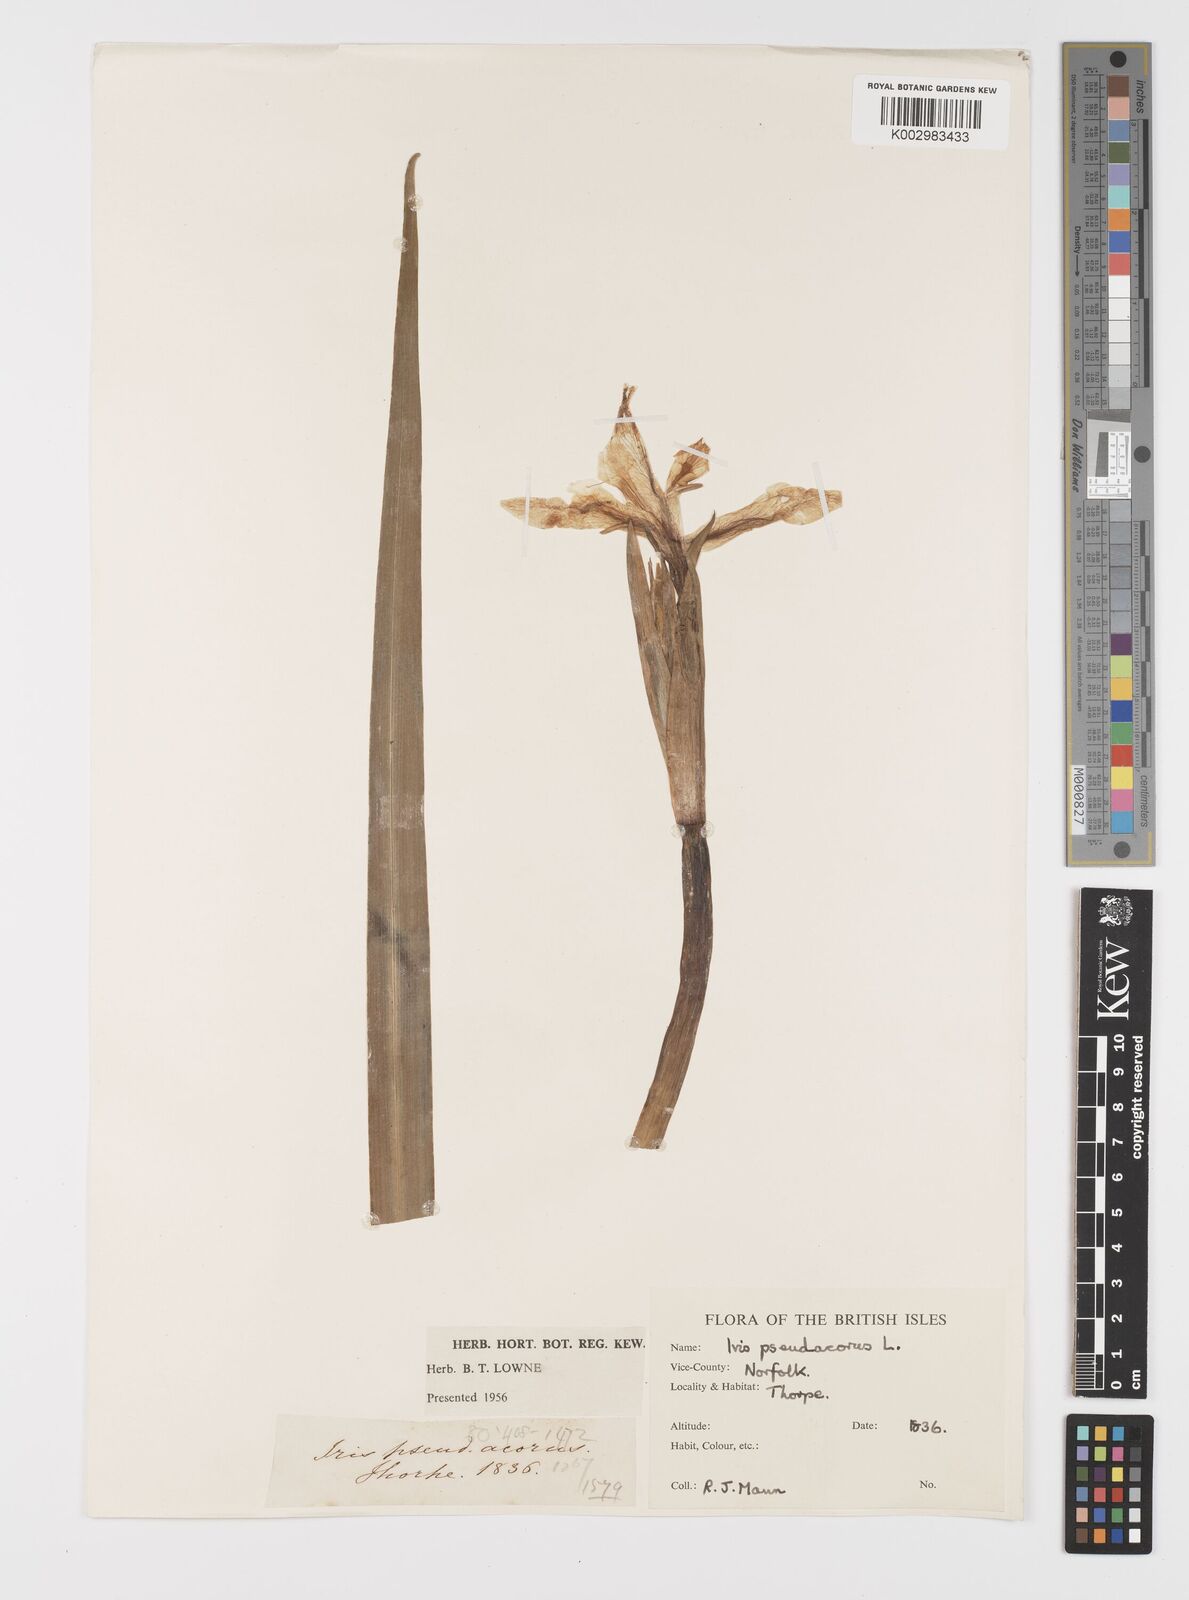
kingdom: Plantae
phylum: Tracheophyta
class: Liliopsida
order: Asparagales
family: Iridaceae
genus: Iris
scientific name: Iris pseudacorus
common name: Yellow flag
